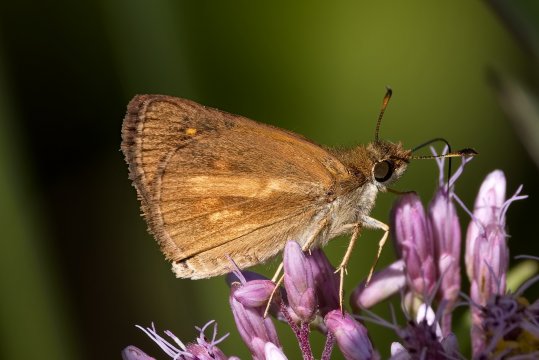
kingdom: Animalia
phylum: Arthropoda
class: Insecta
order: Lepidoptera
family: Hesperiidae
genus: Poanes
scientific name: Poanes viator
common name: Broad-winged Skipper
